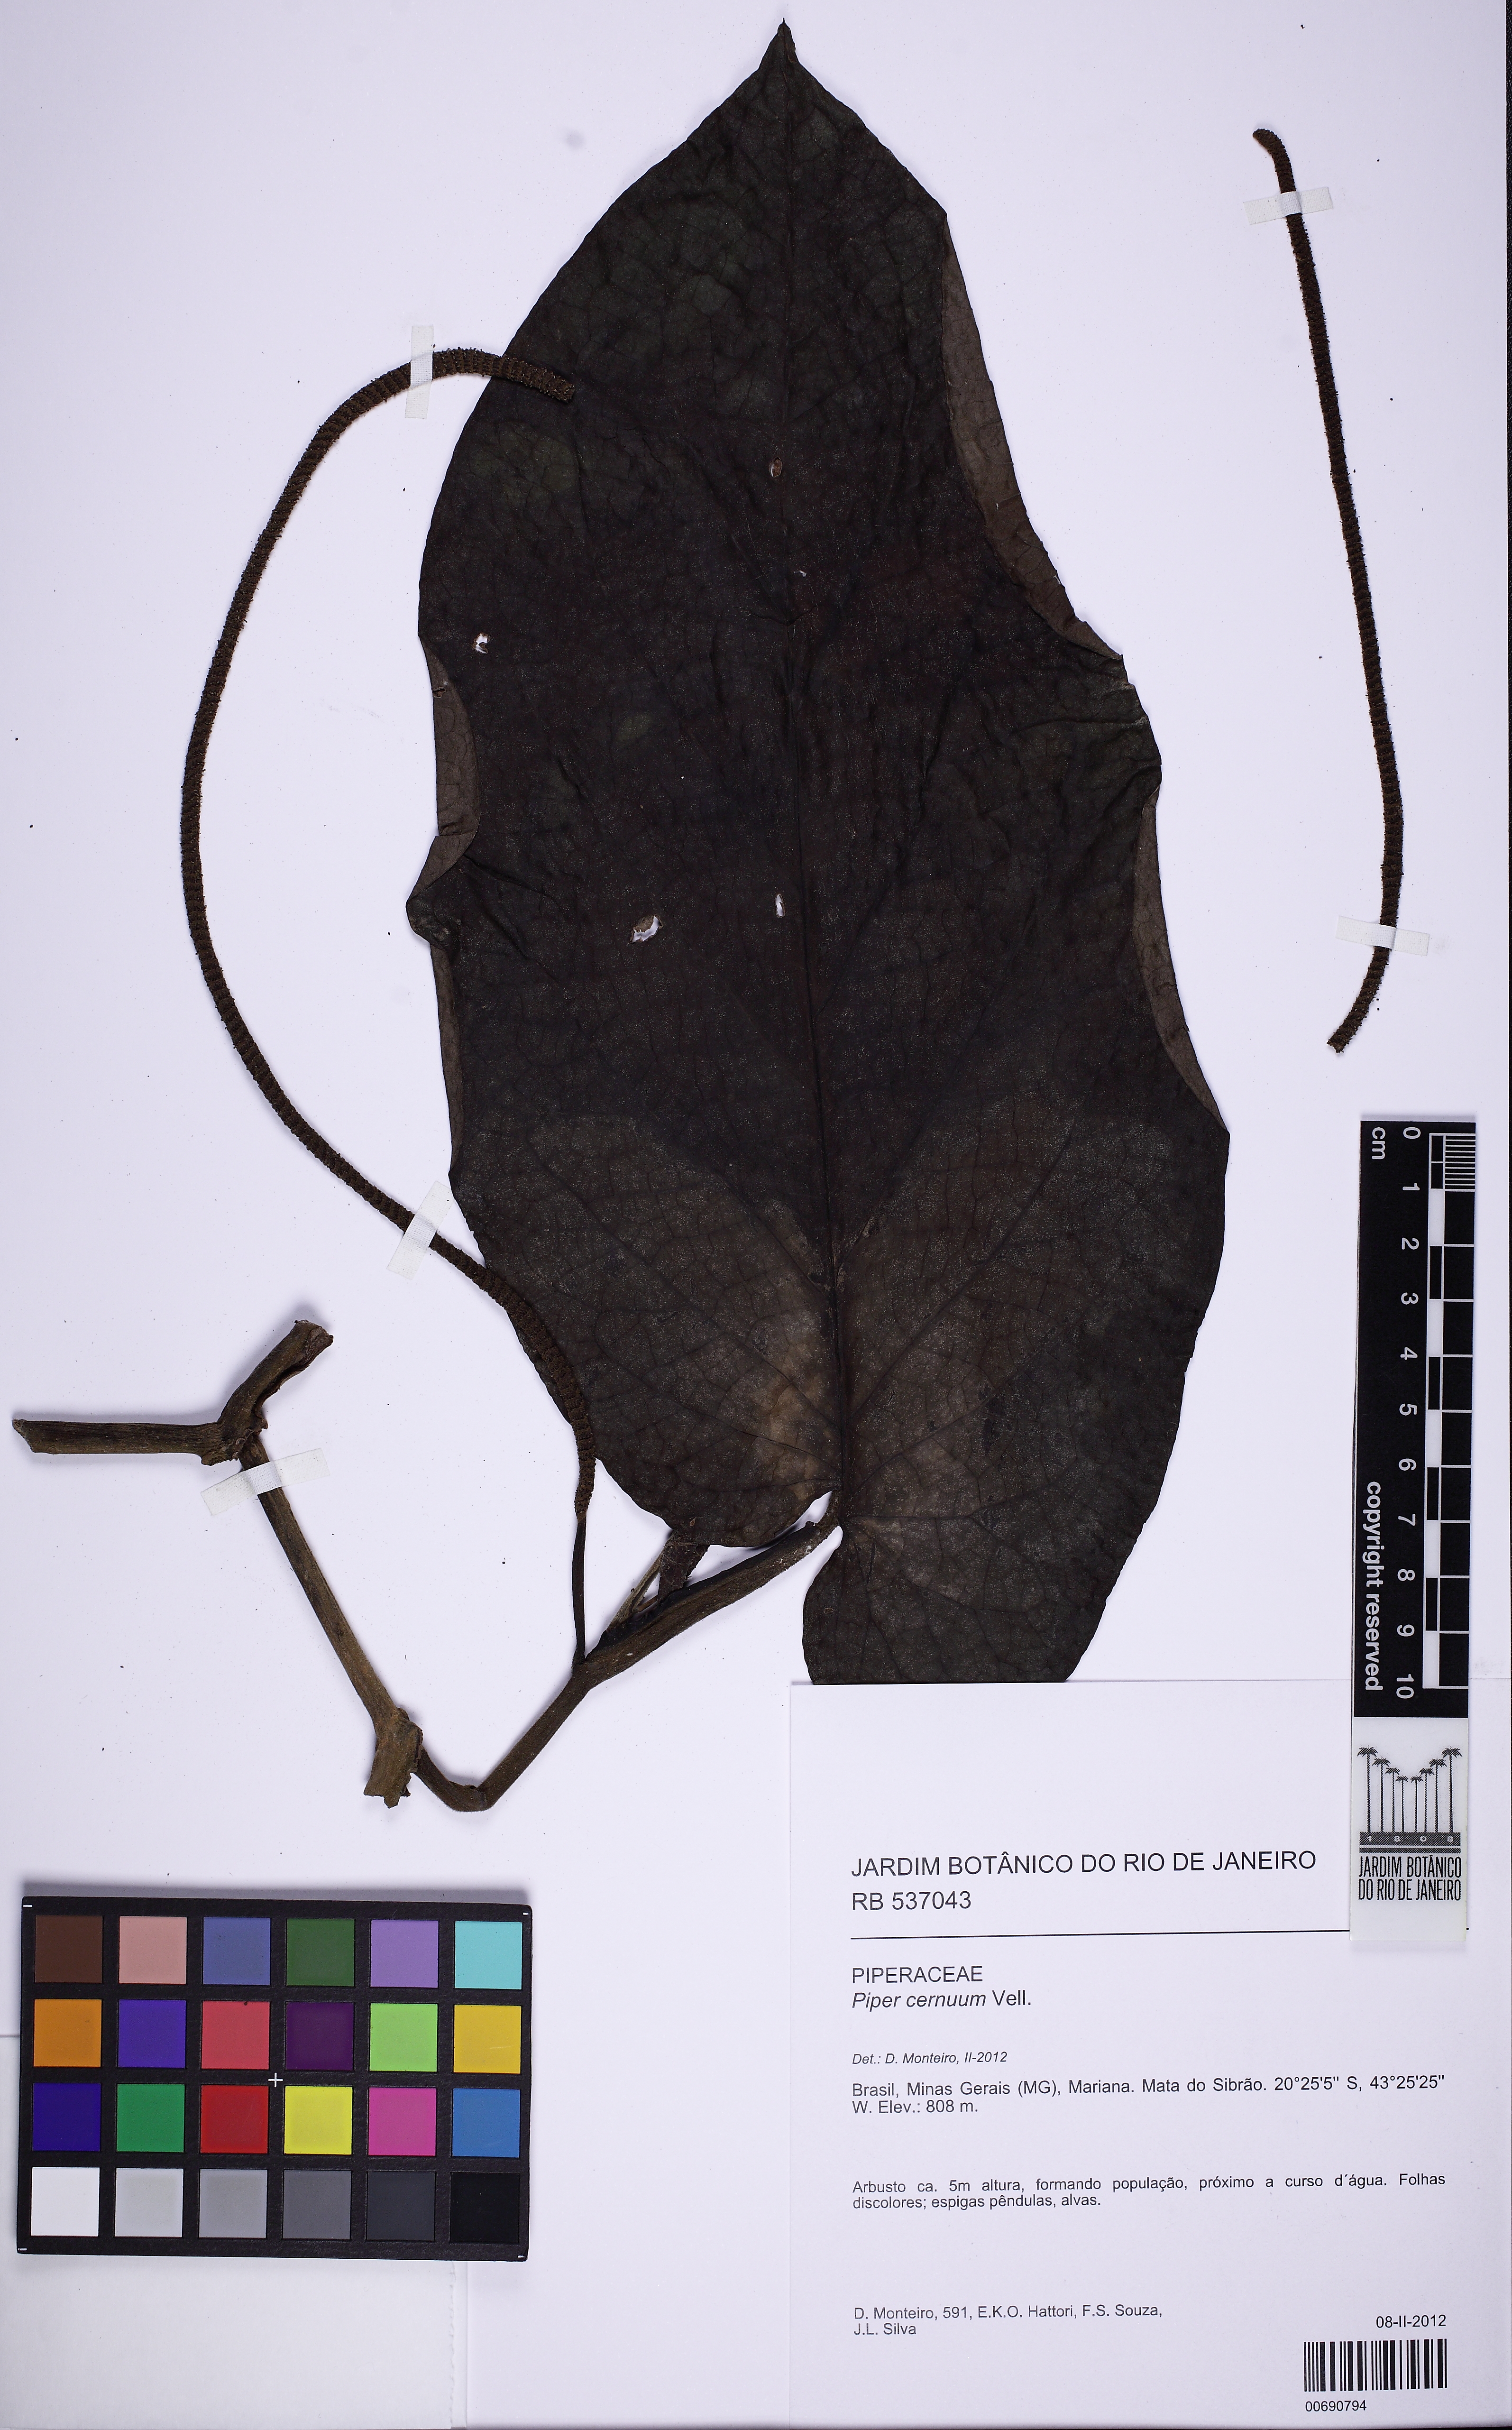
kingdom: Plantae
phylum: Tracheophyta
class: Magnoliopsida
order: Piperales
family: Piperaceae
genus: Piper
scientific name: Piper cernuum
